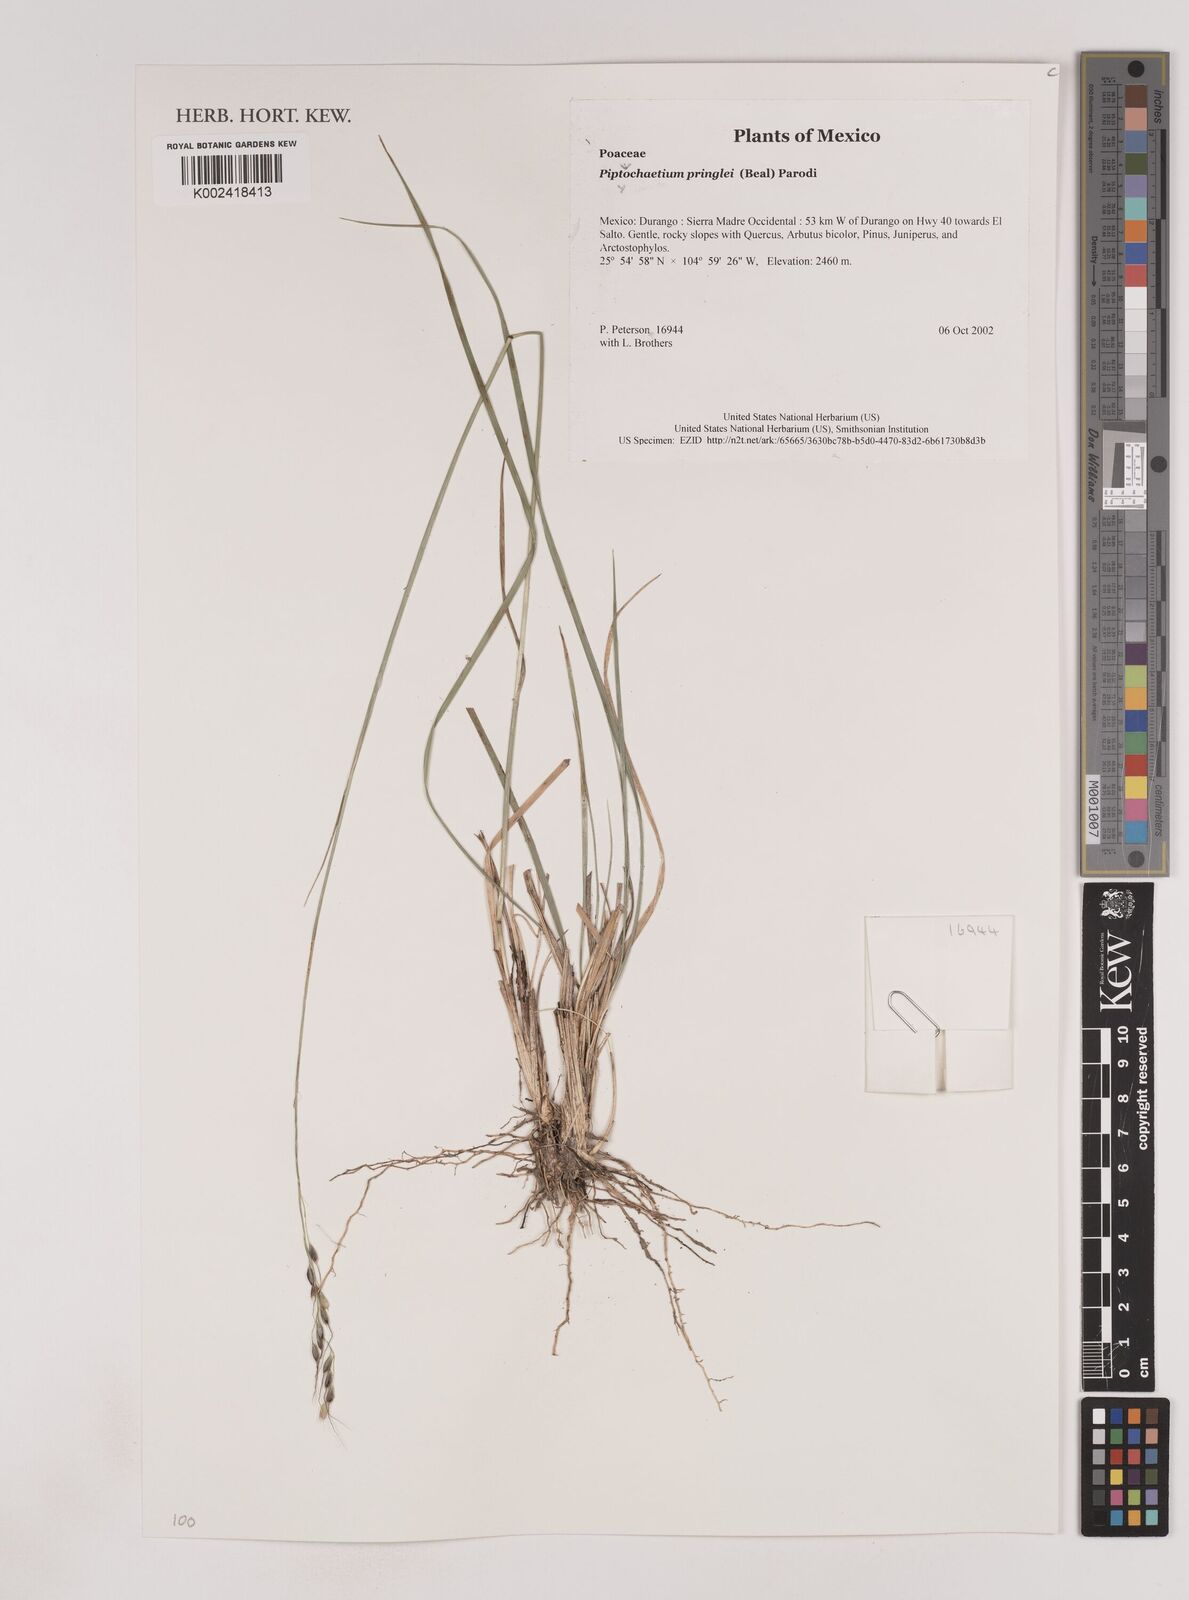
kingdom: Plantae
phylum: Tracheophyta
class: Liliopsida
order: Poales
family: Poaceae
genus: Piptochaetium
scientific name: Piptochaetium pringlei
